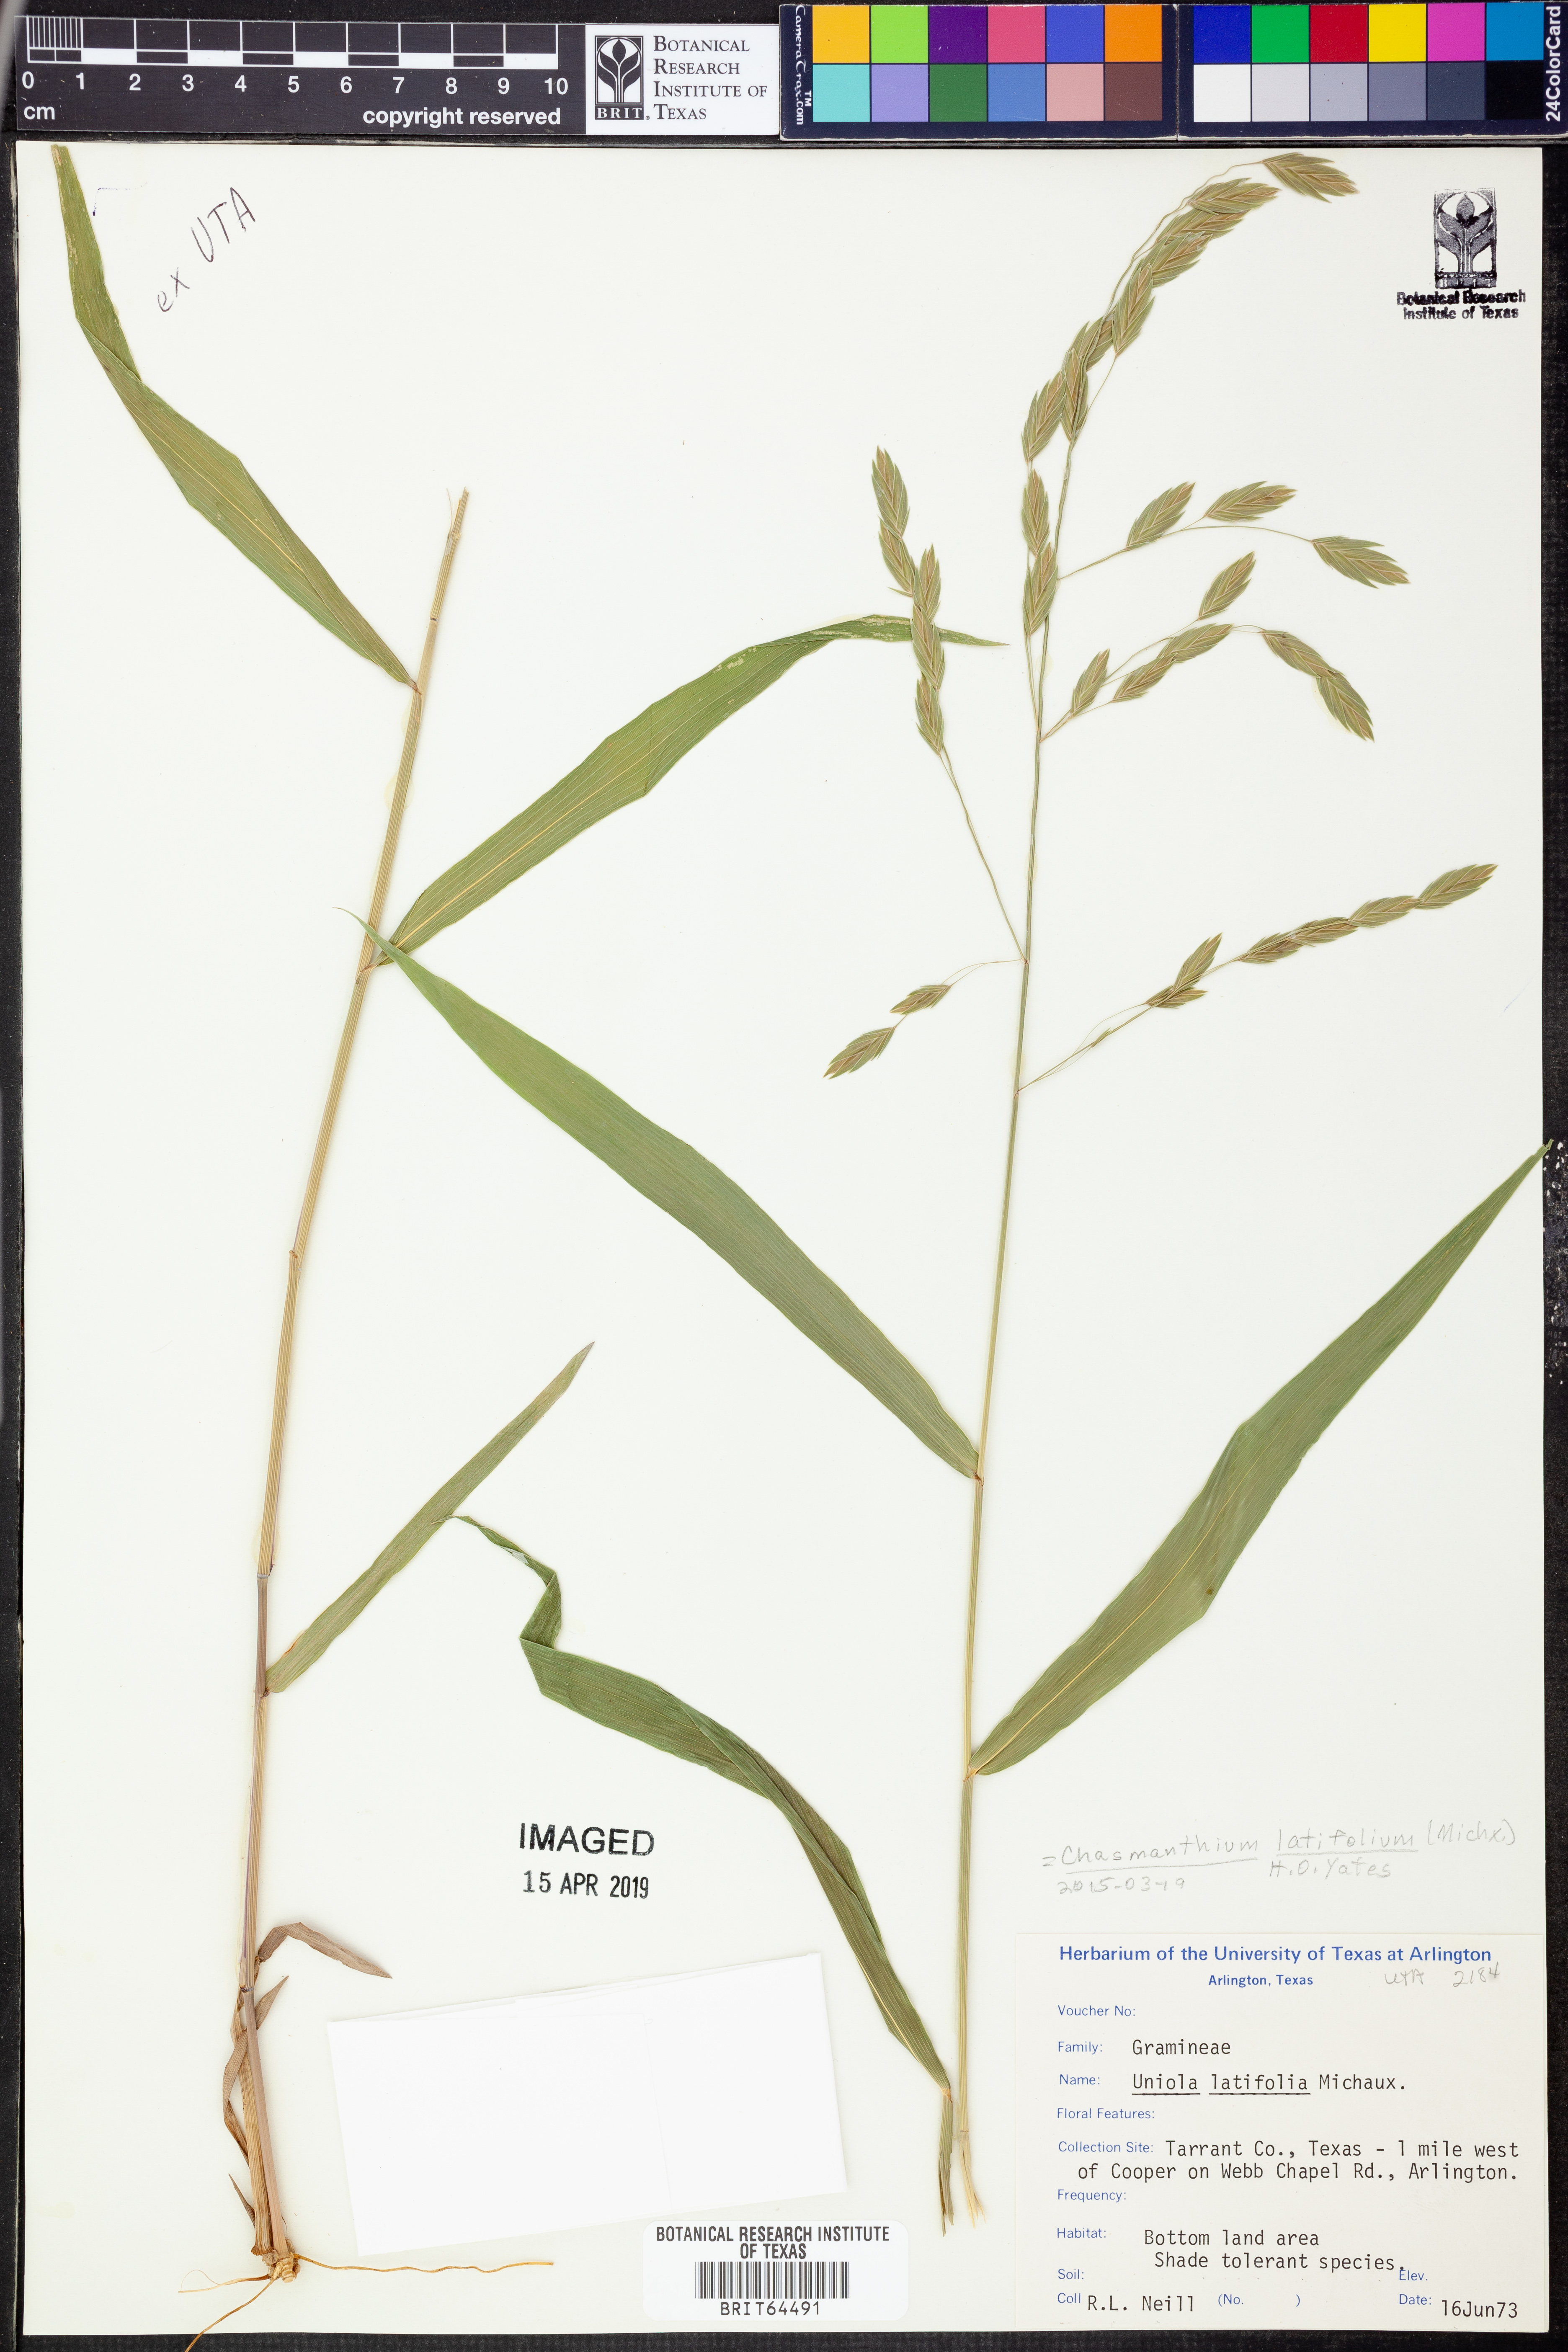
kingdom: Plantae
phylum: Tracheophyta
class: Liliopsida
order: Poales
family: Poaceae
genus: Chasmanthium
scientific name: Chasmanthium latifolium
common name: Broad-leaved chasmanthium
